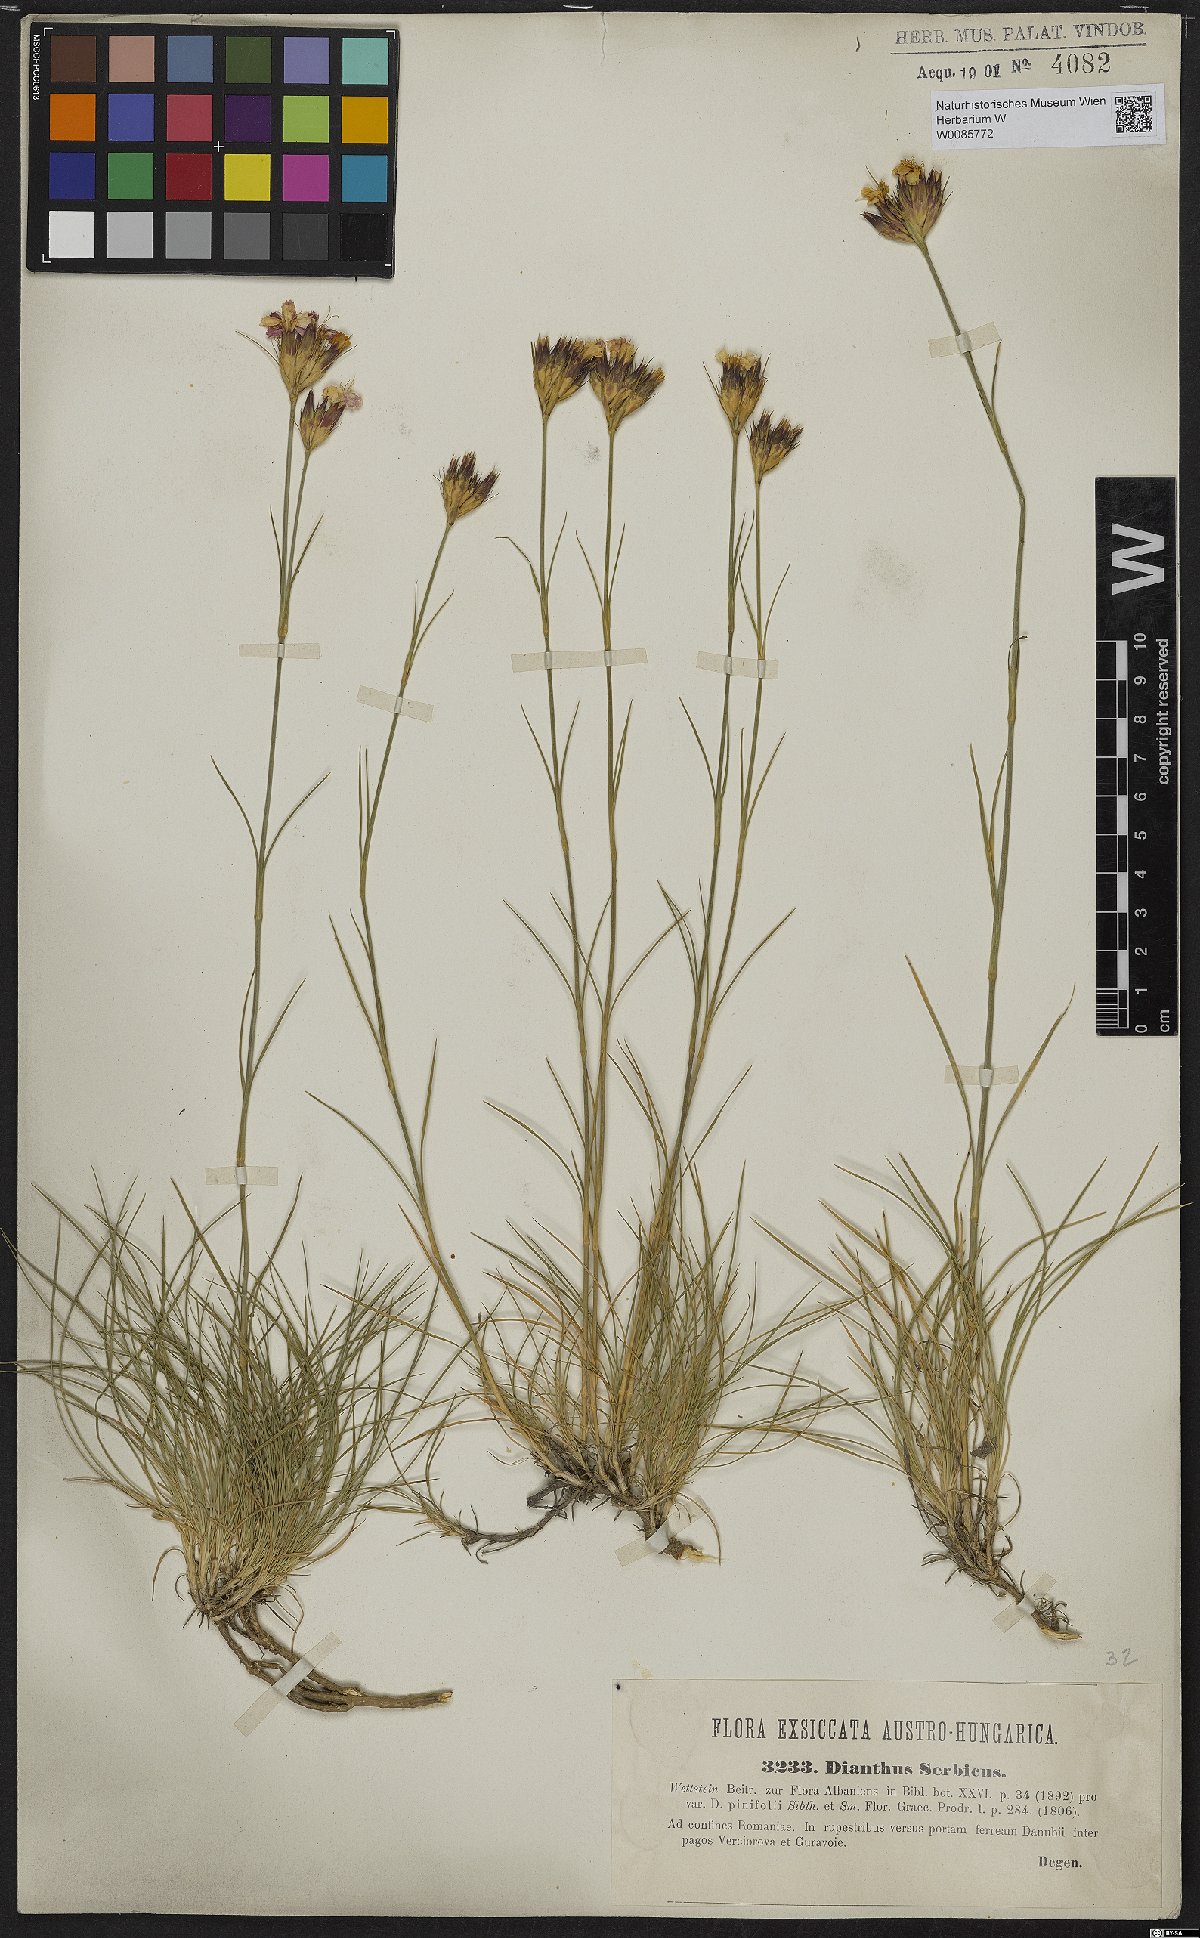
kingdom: Plantae
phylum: Tracheophyta
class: Magnoliopsida
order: Caryophyllales
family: Caryophyllaceae
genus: Dianthus
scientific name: Dianthus pinifolius
